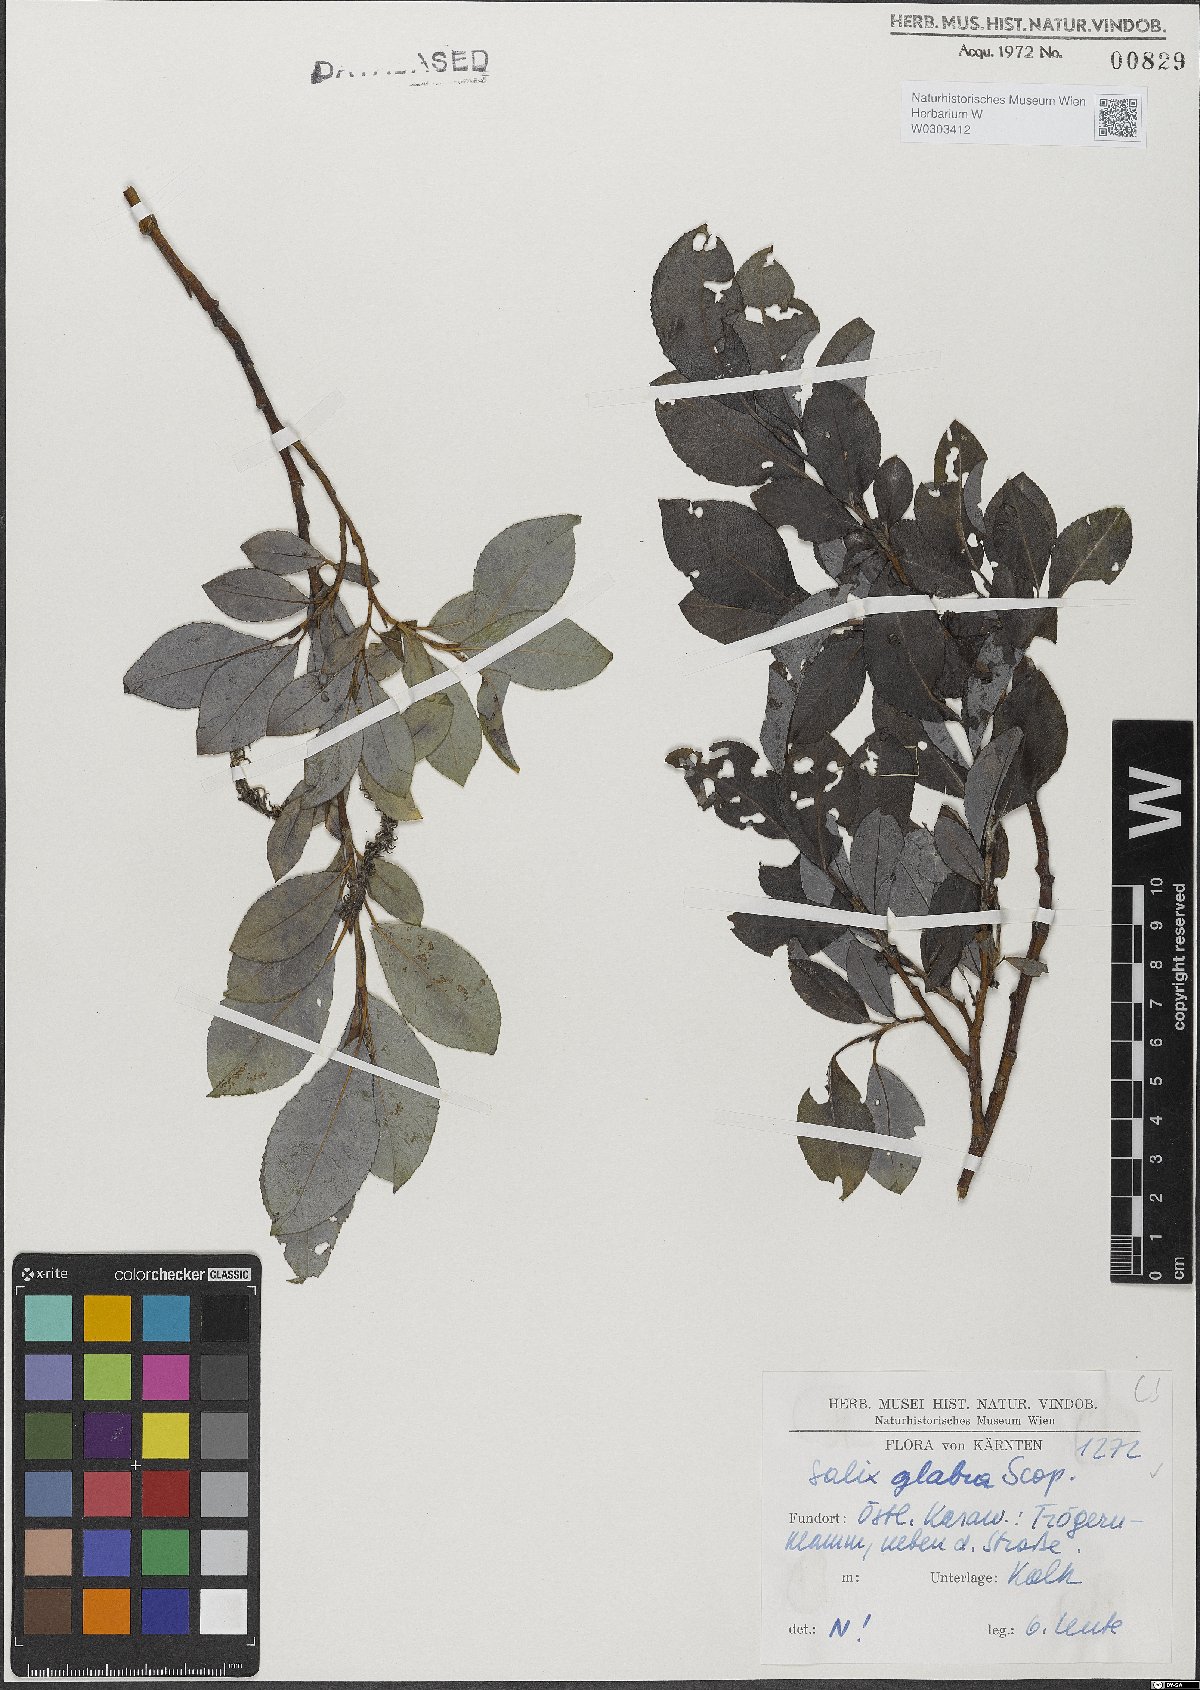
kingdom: Plantae
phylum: Tracheophyta
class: Magnoliopsida
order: Malpighiales
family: Salicaceae
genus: Salix
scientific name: Salix glabra
